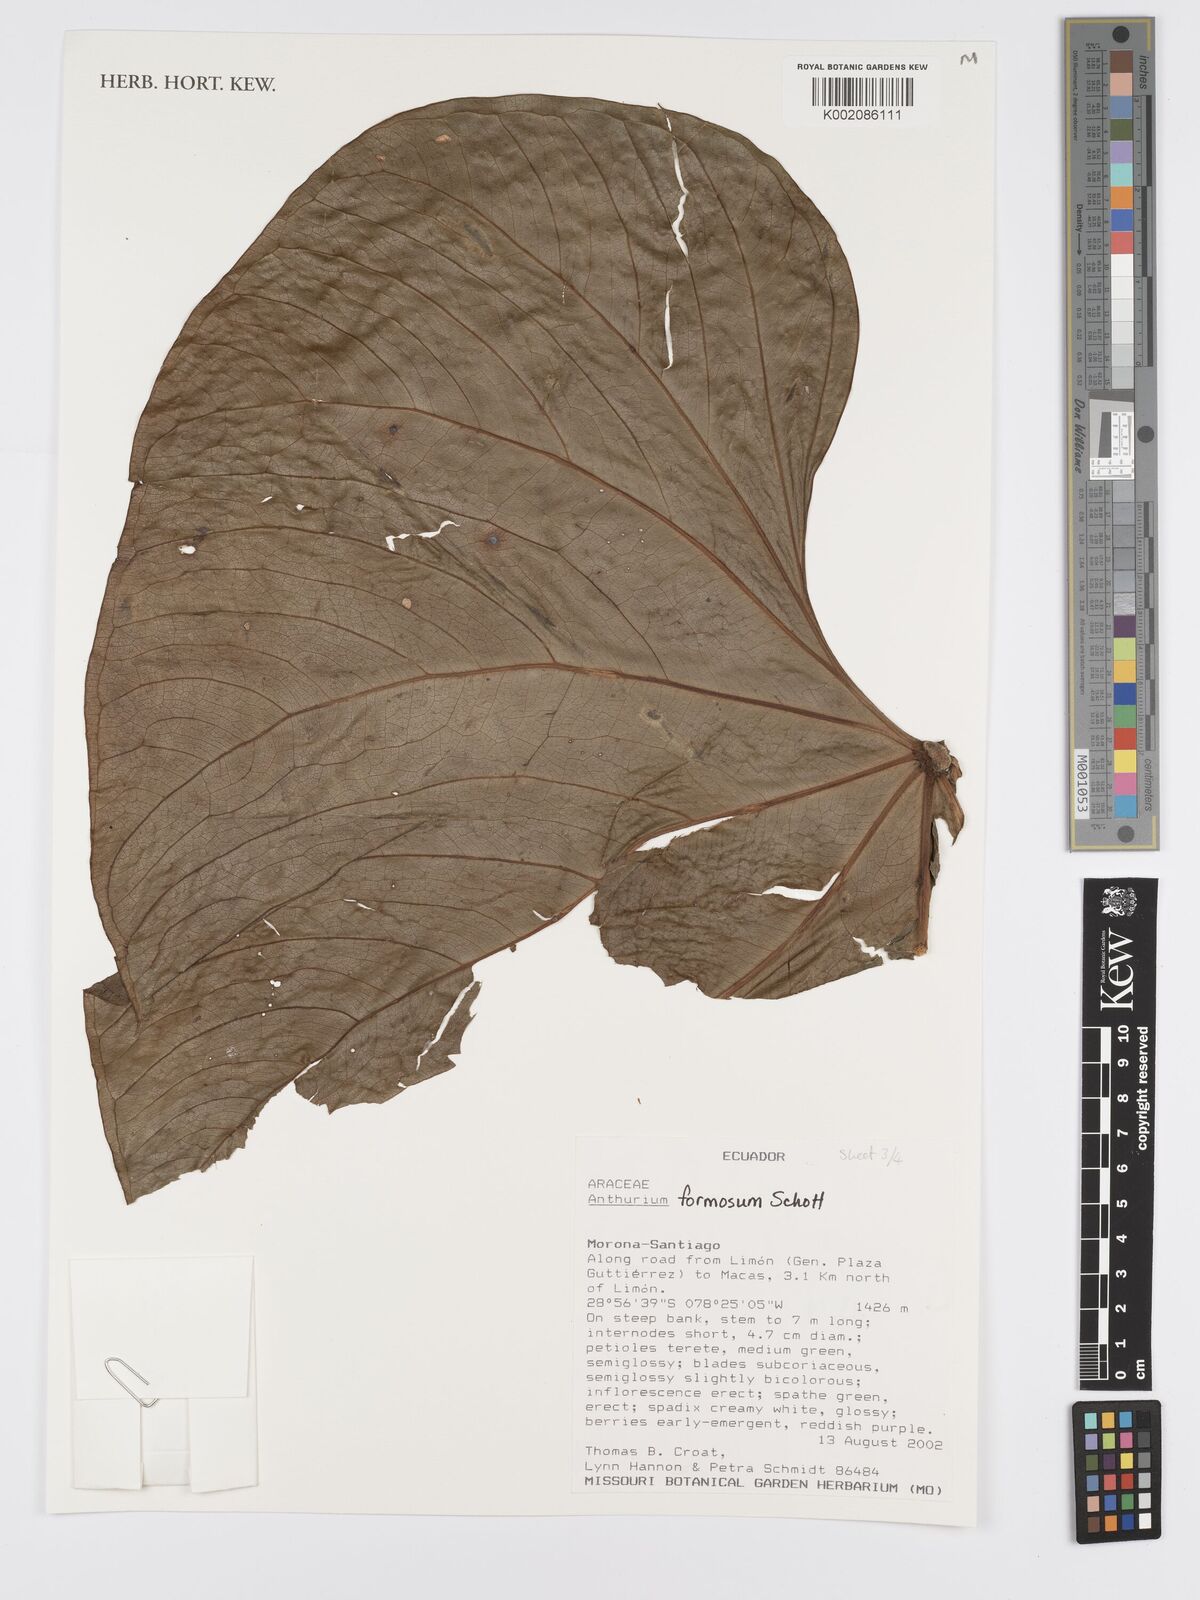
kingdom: Plantae
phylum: Tracheophyta
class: Liliopsida
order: Alismatales
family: Araceae
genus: Anthurium
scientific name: Anthurium formosum
